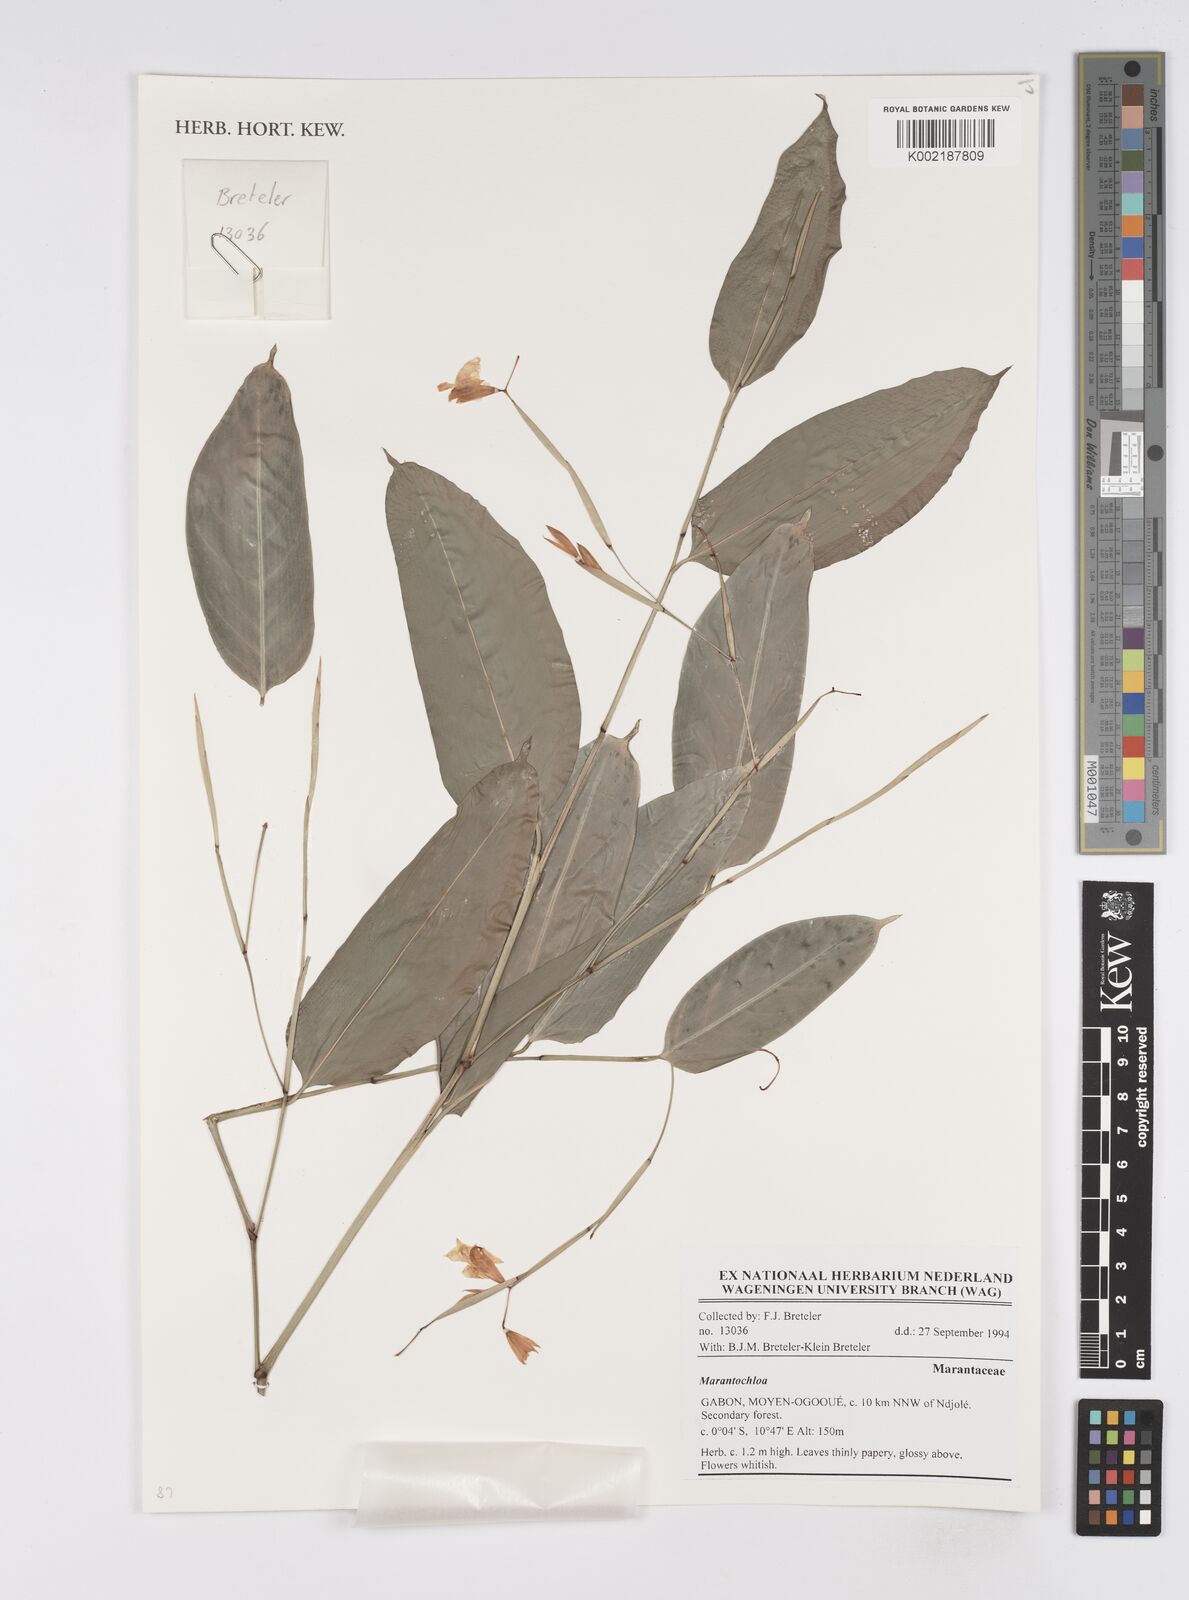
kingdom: Plantae
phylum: Tracheophyta
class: Liliopsida
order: Zingiberales
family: Marantaceae
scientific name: Marantaceae
